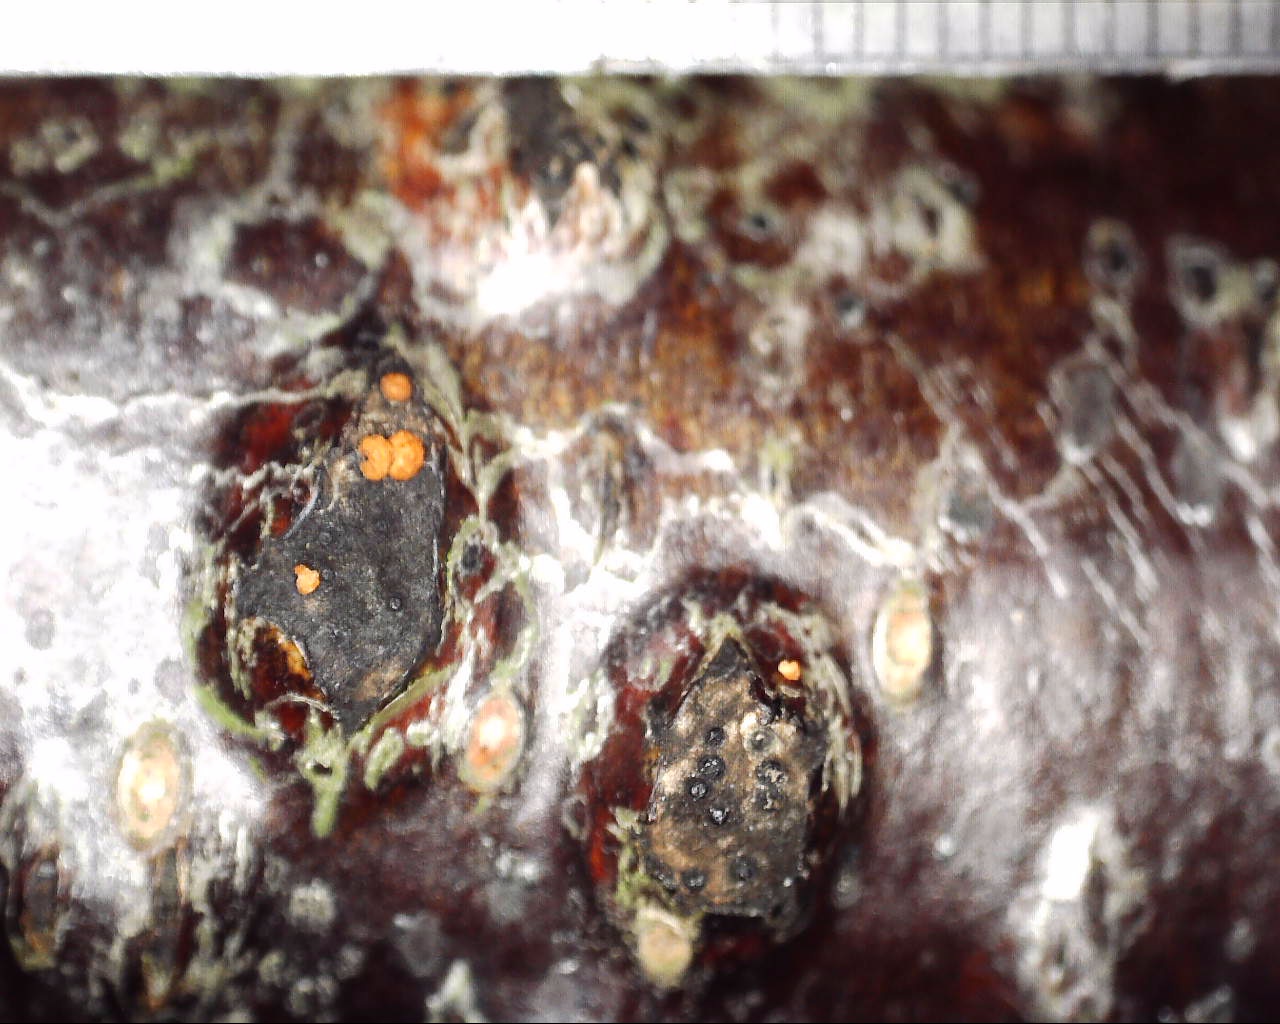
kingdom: Fungi
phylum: Ascomycota
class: Sordariomycetes
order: Hypocreales
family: Nectriaceae
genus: Dialonectria
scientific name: Dialonectria magnusiana
